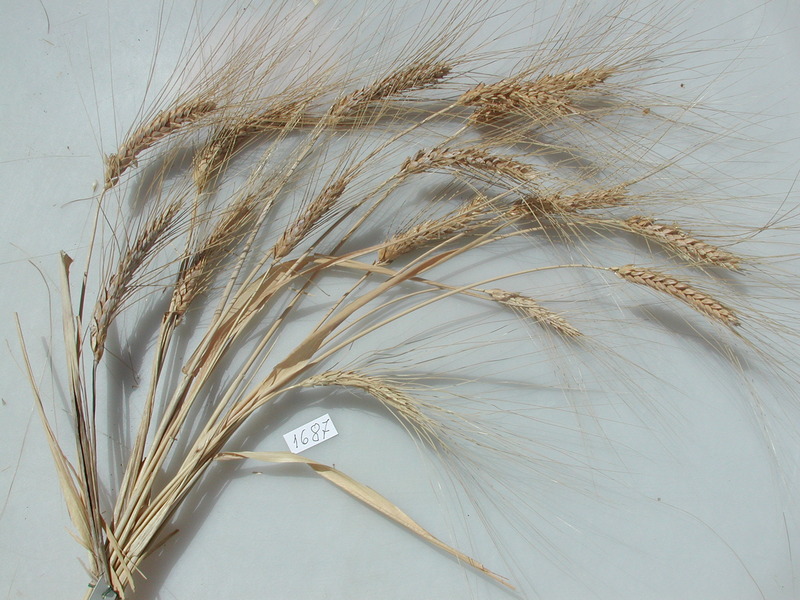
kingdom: Plantae
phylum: Tracheophyta
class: Liliopsida
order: Poales
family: Poaceae
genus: Triticum
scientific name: Triticum turgidum
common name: Wheat
